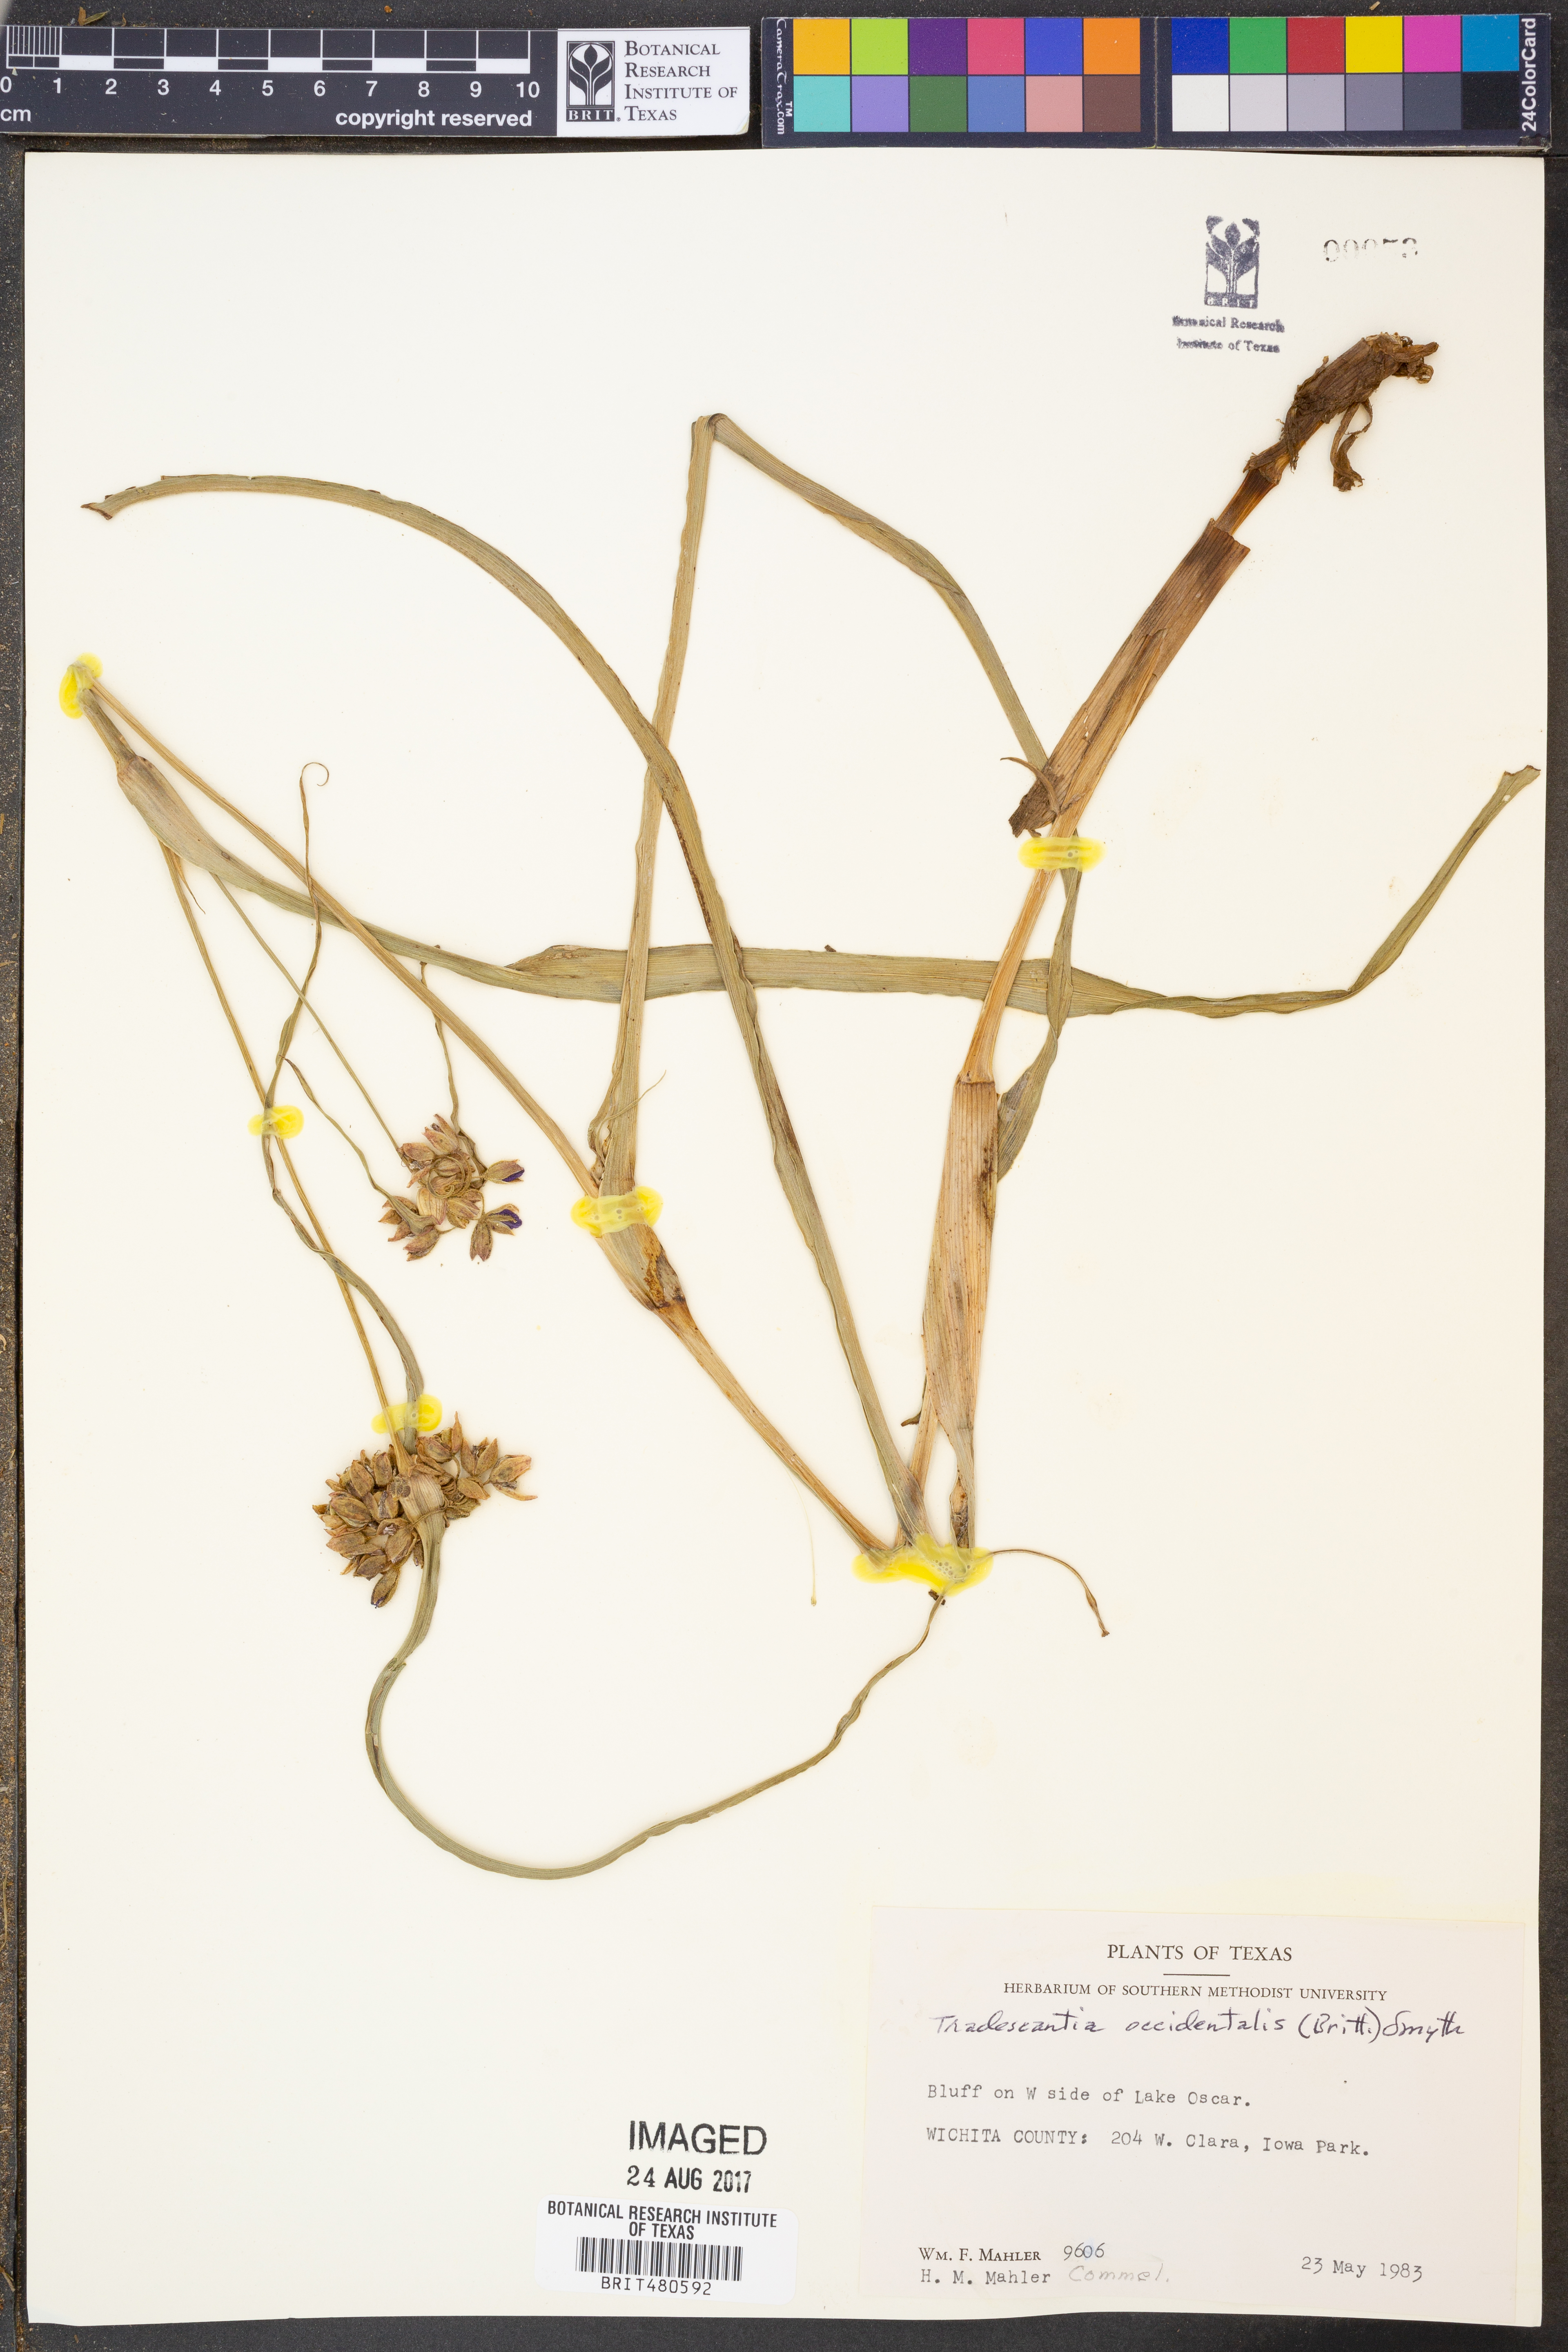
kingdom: Plantae
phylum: Tracheophyta
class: Liliopsida
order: Commelinales
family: Commelinaceae
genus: Tradescantia
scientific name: Tradescantia occidentalis
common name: Prairie spiderwort
